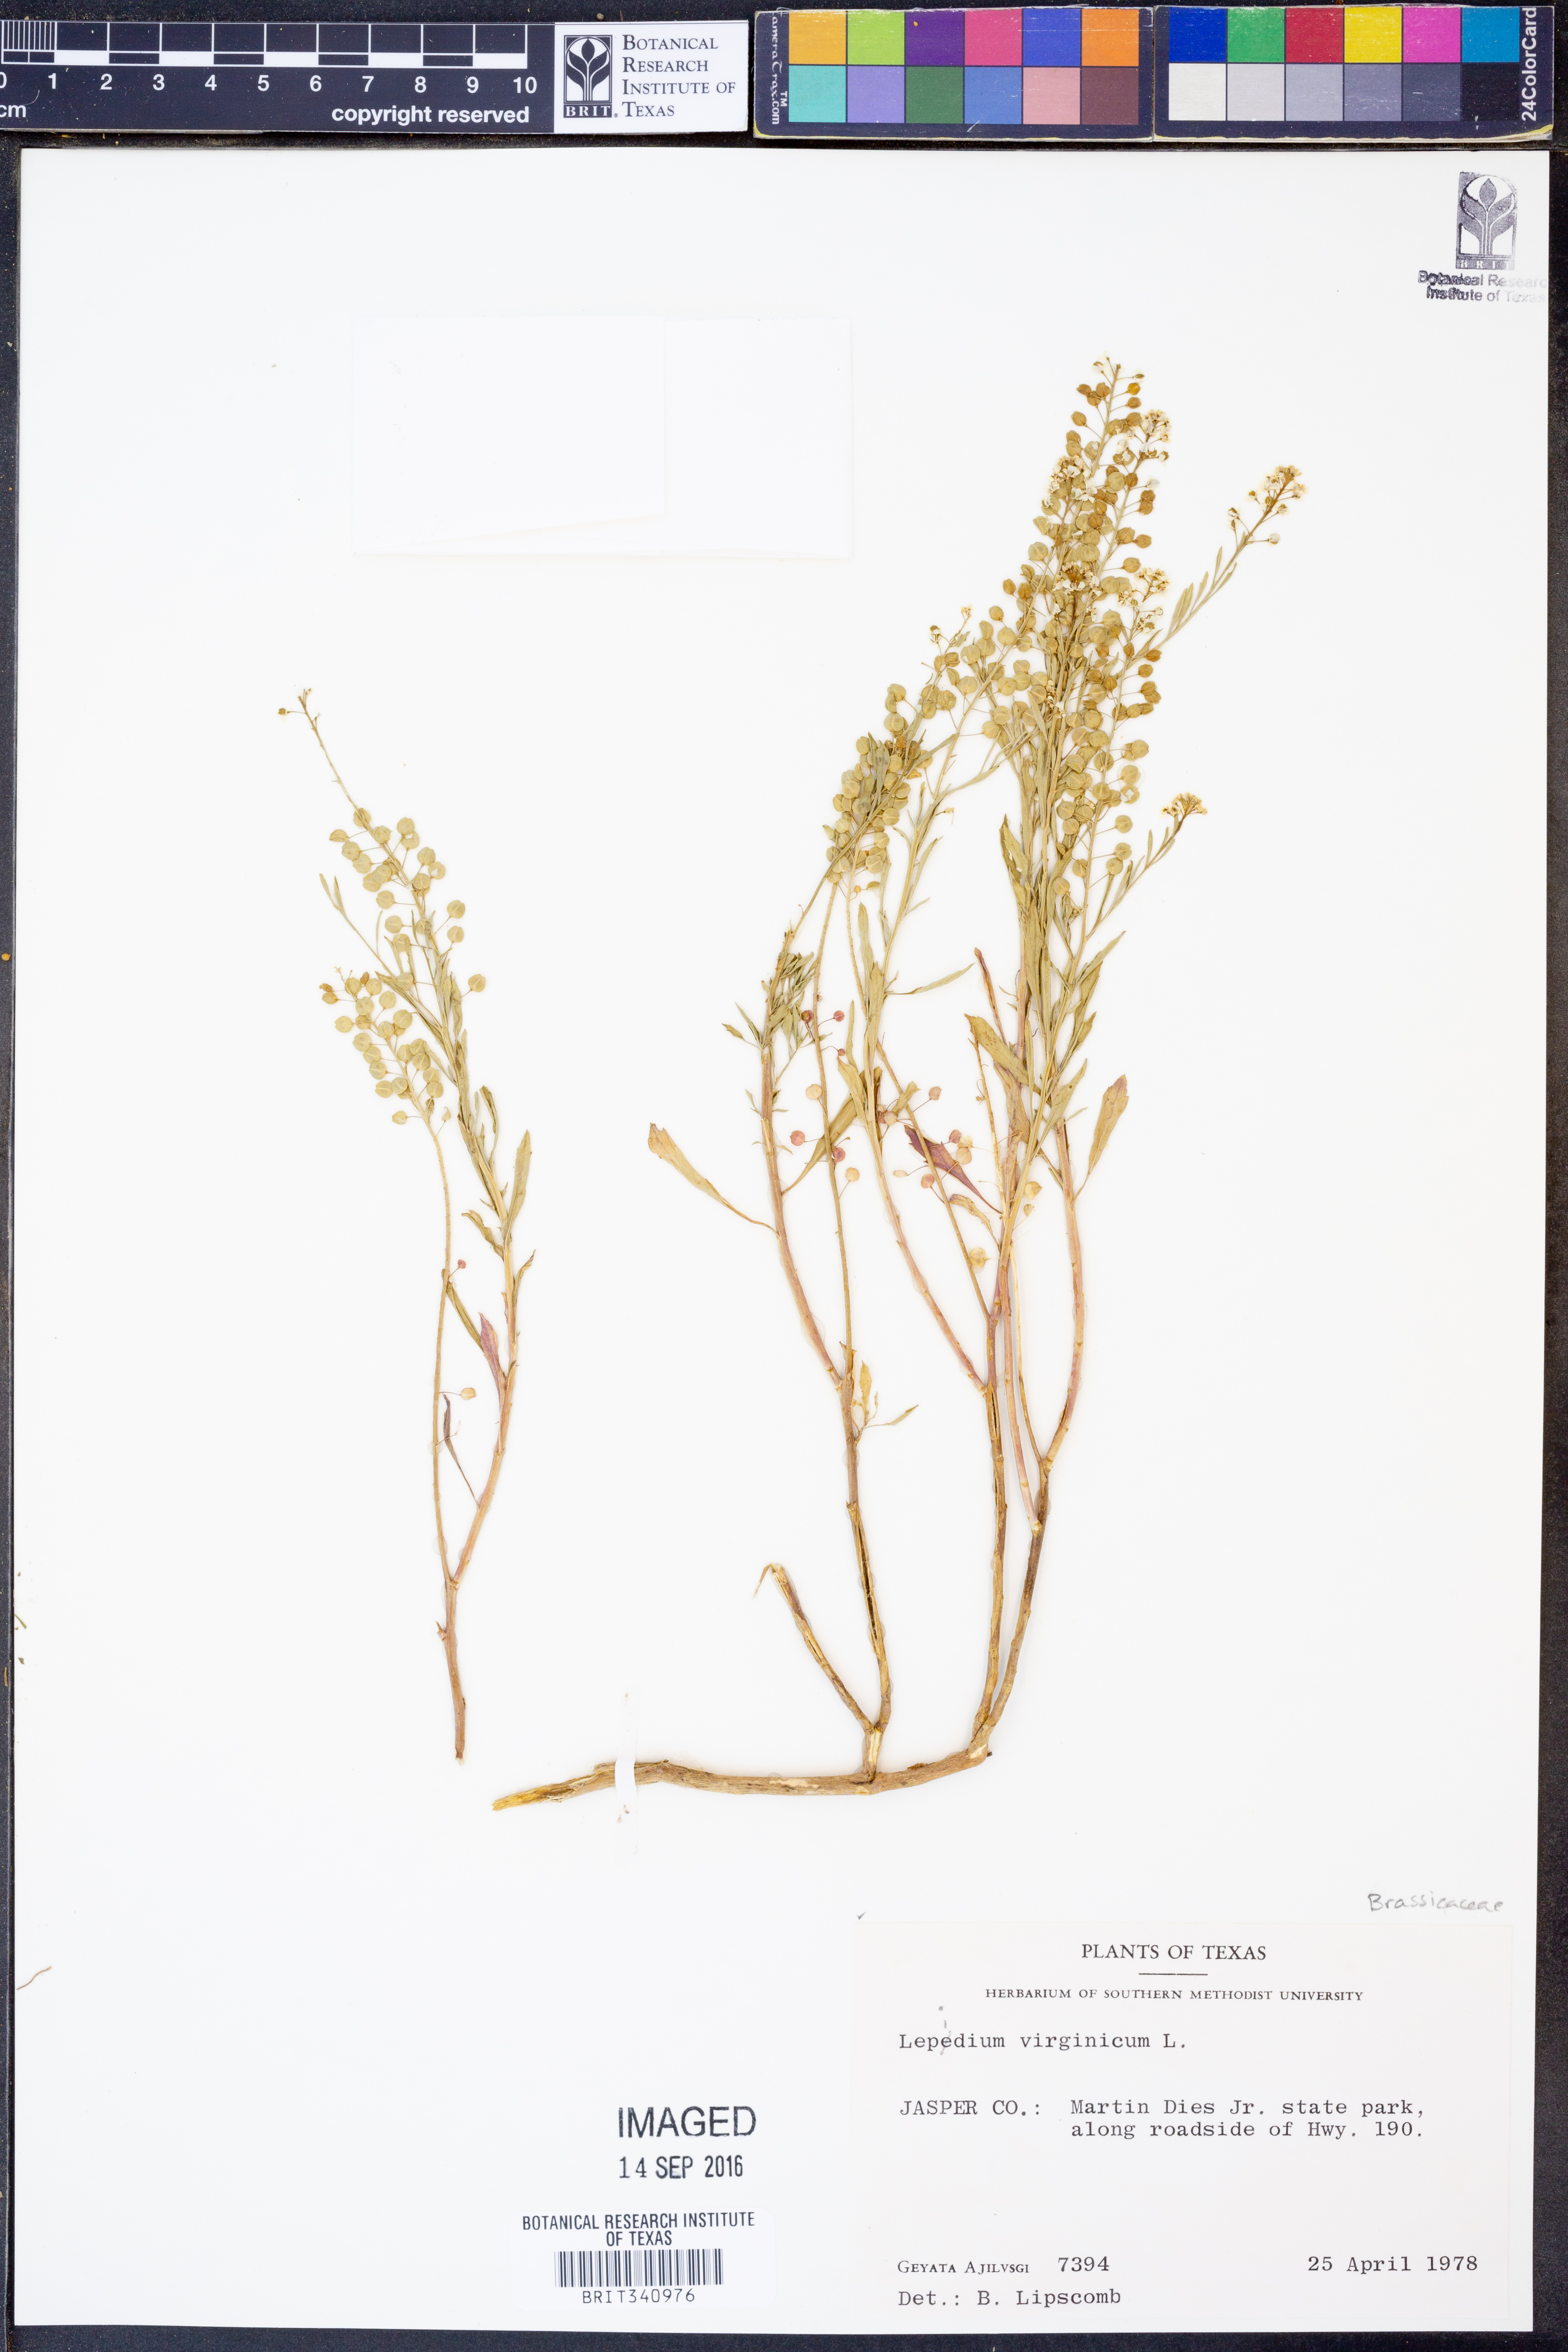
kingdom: Plantae
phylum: Tracheophyta
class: Magnoliopsida
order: Brassicales
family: Brassicaceae
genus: Lepidium
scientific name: Lepidium virginicum
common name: Least pepperwort
